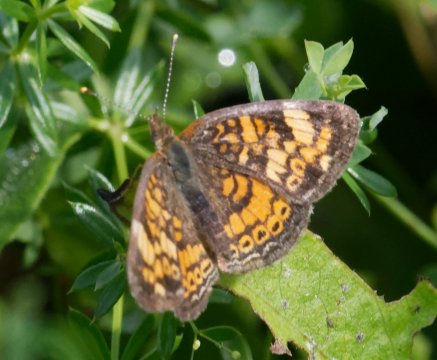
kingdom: Animalia
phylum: Arthropoda
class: Insecta
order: Lepidoptera
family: Nymphalidae
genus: Phyciodes
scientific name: Phyciodes
